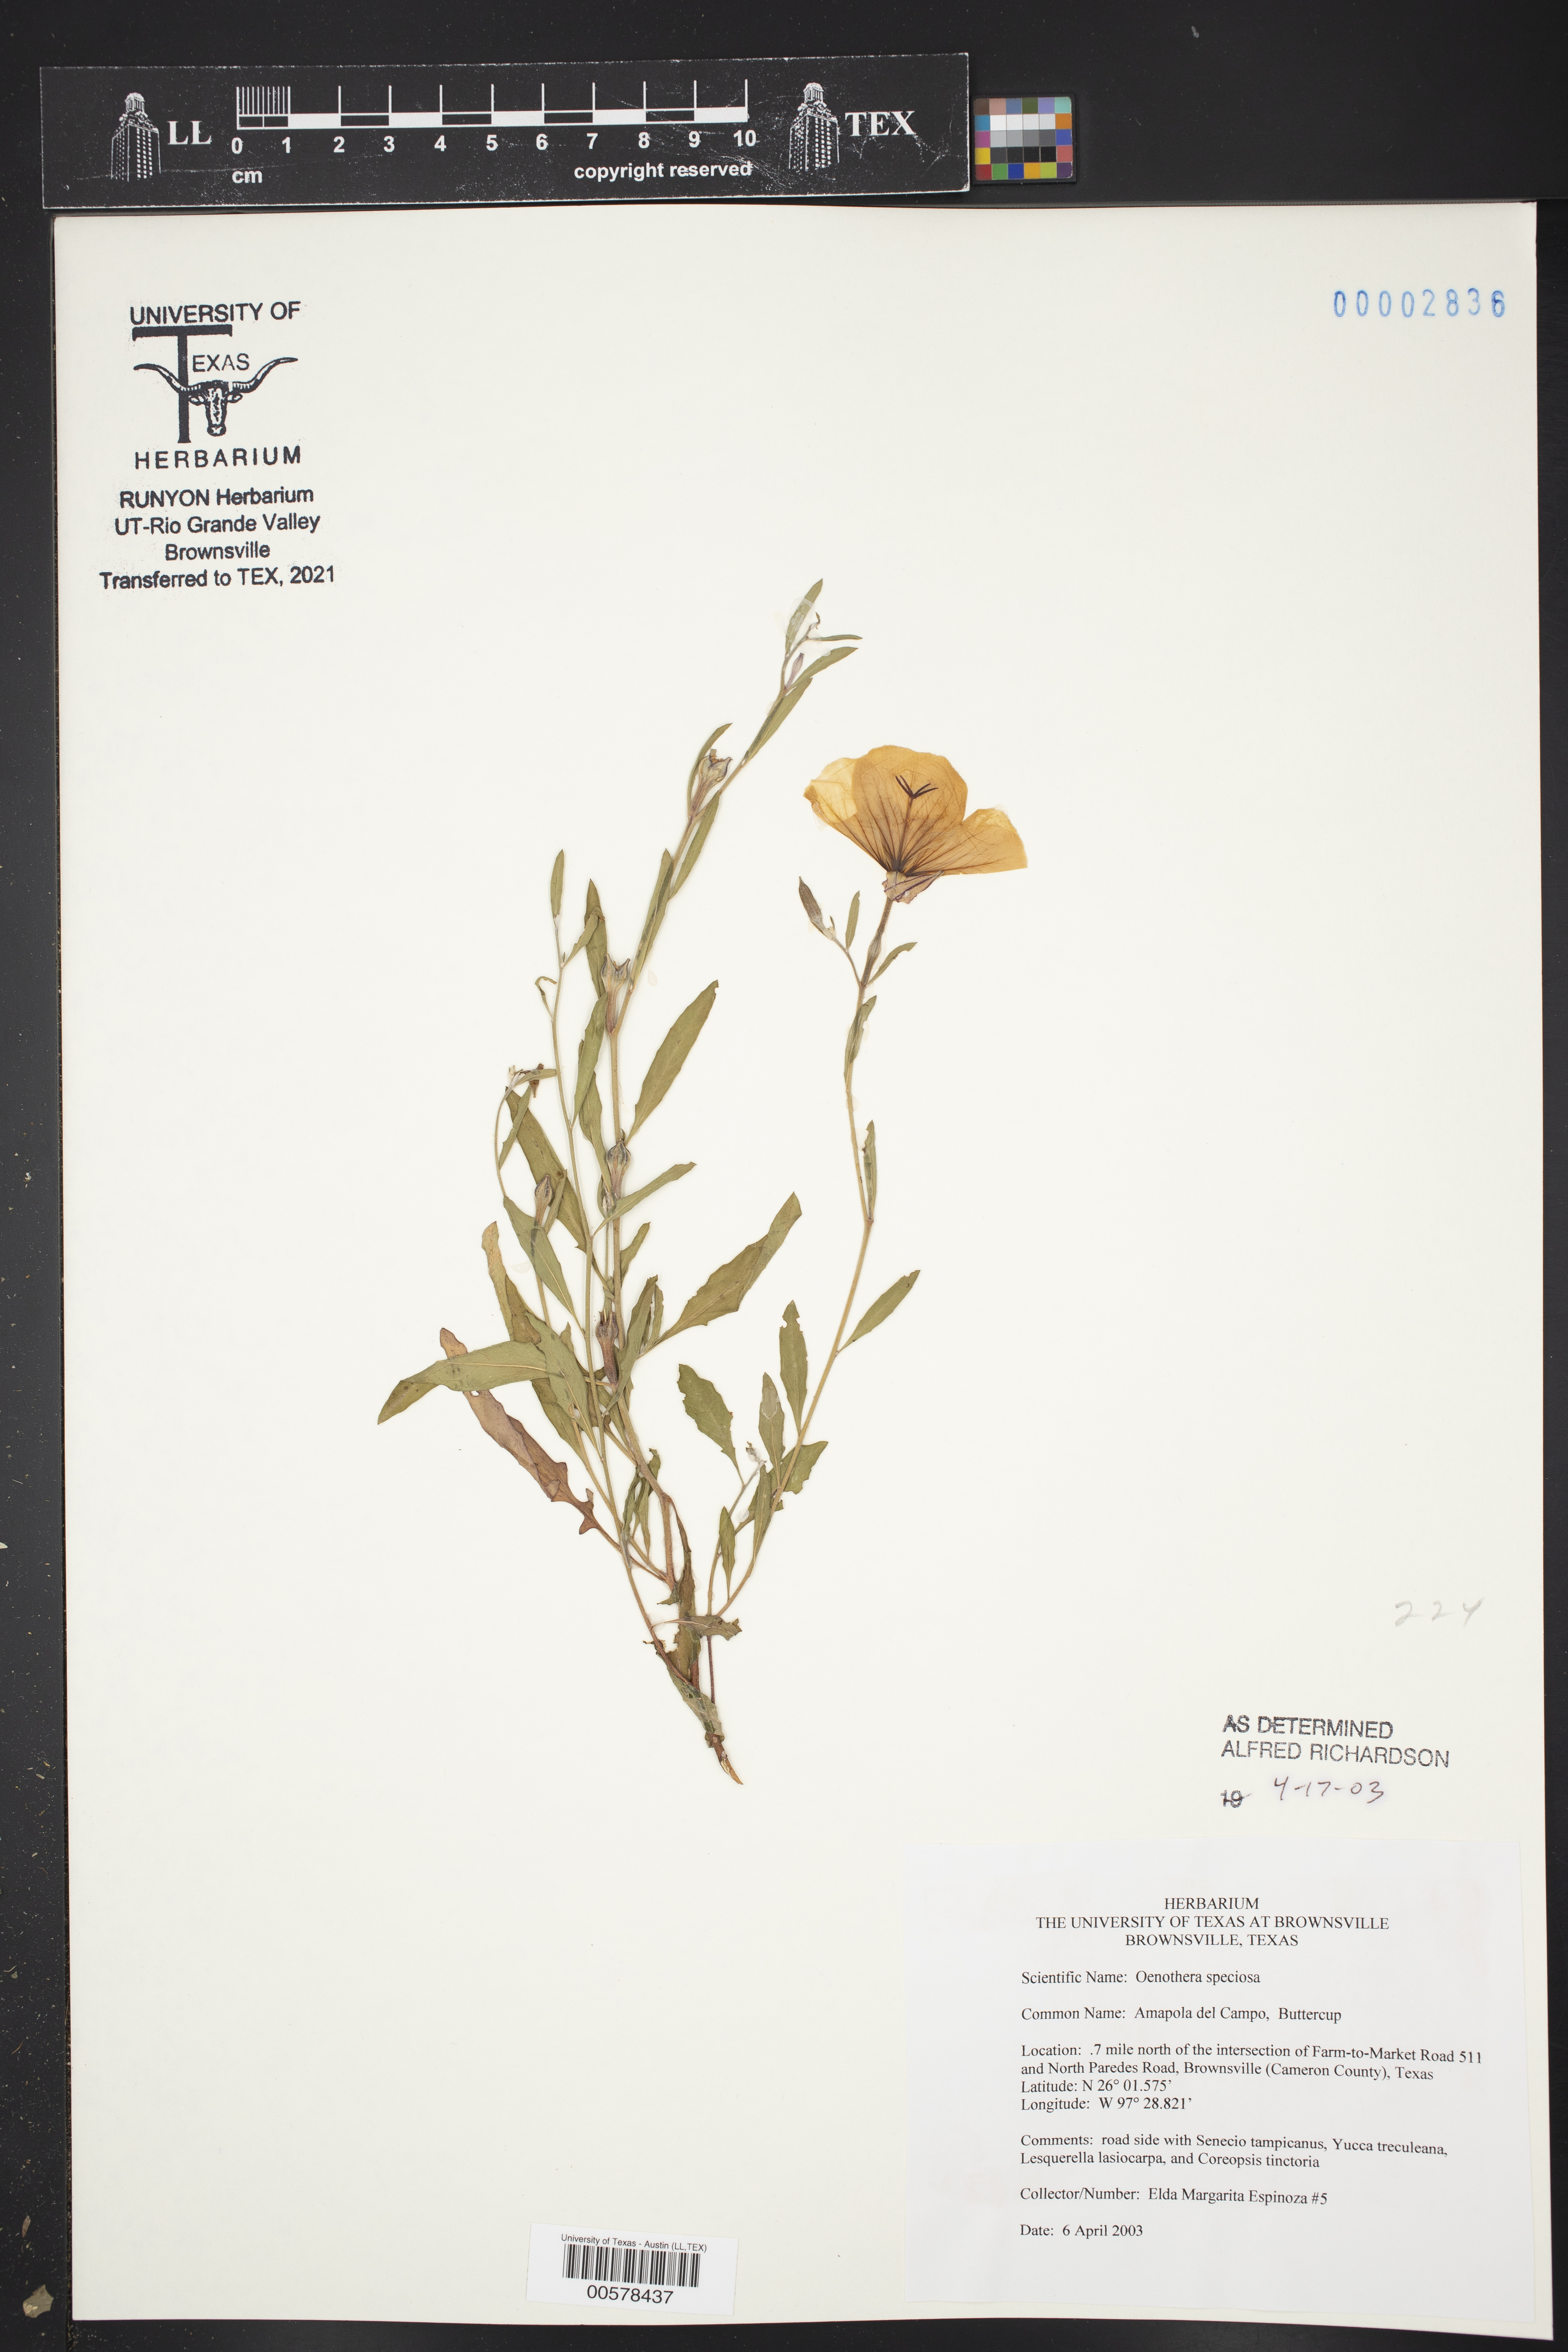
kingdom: Plantae
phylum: Tracheophyta
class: Magnoliopsida
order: Myrtales
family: Onagraceae
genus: Oenothera
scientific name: Oenothera speciosa
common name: White evening-primrose
